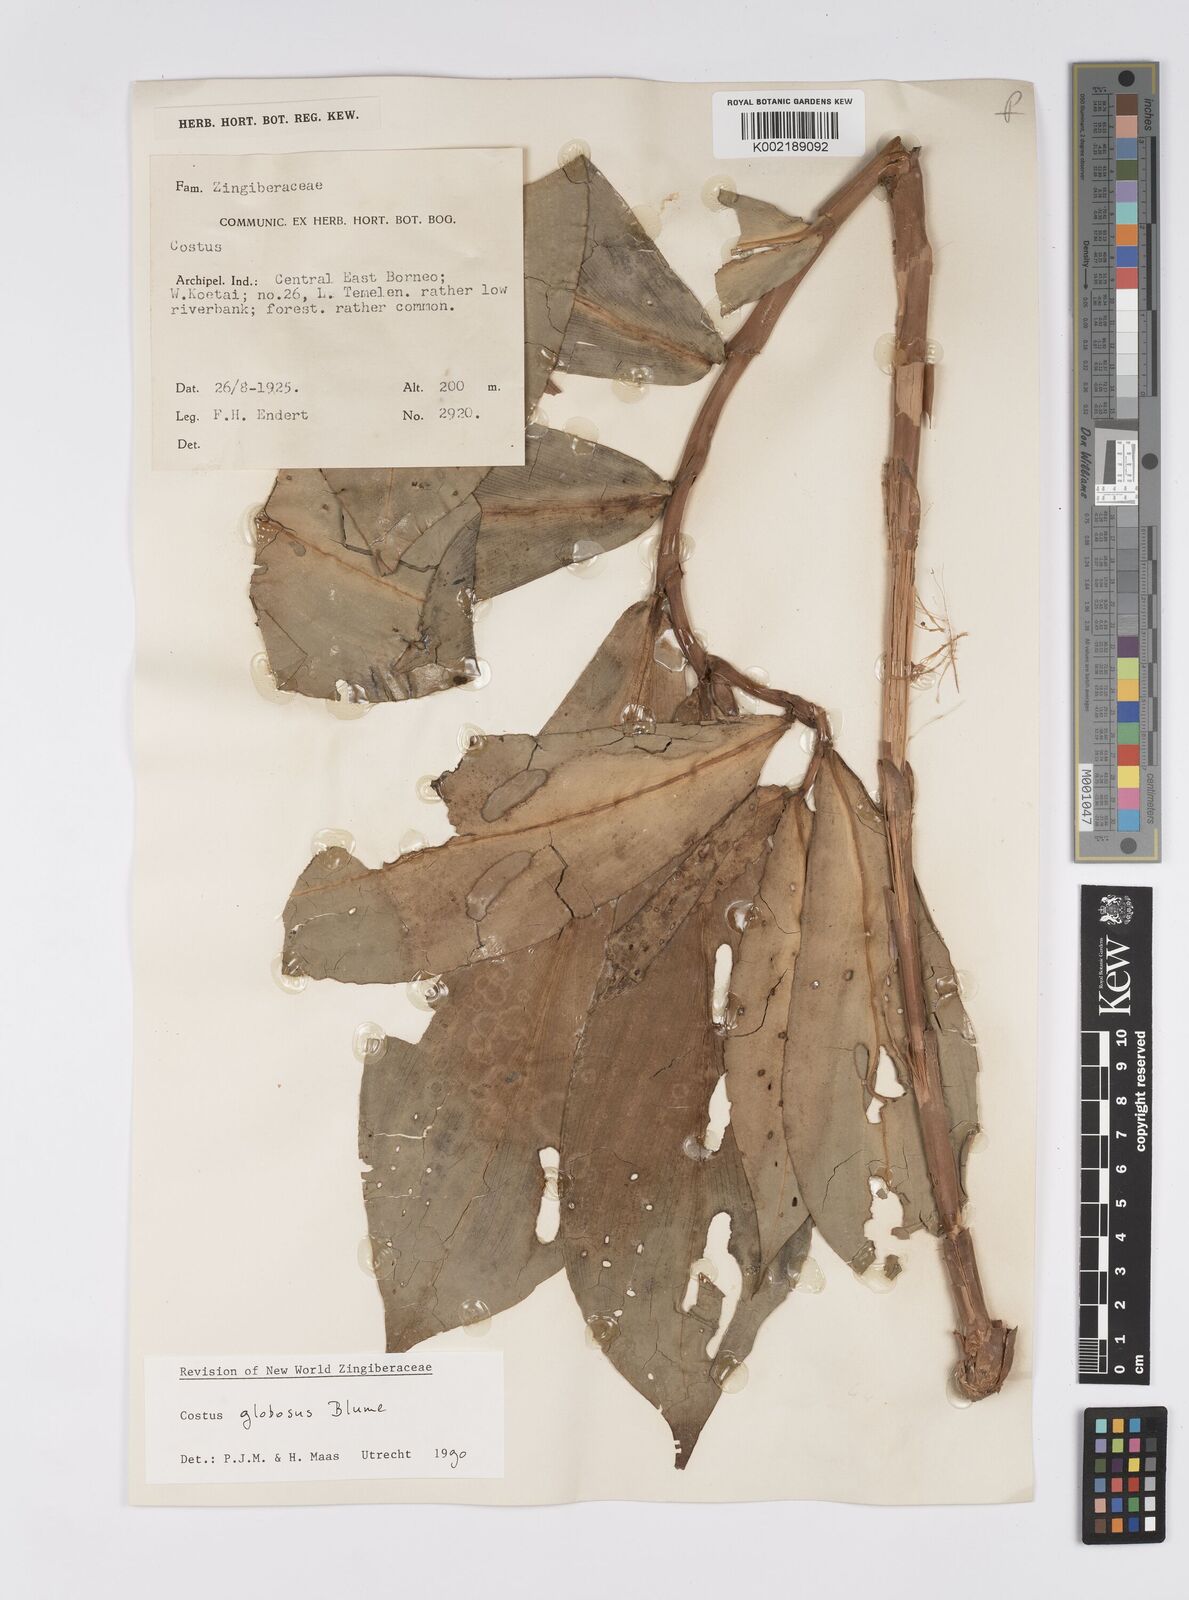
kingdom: Plantae
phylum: Tracheophyta
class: Liliopsida
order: Zingiberales
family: Costaceae
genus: Hellenia
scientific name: Hellenia globosa
